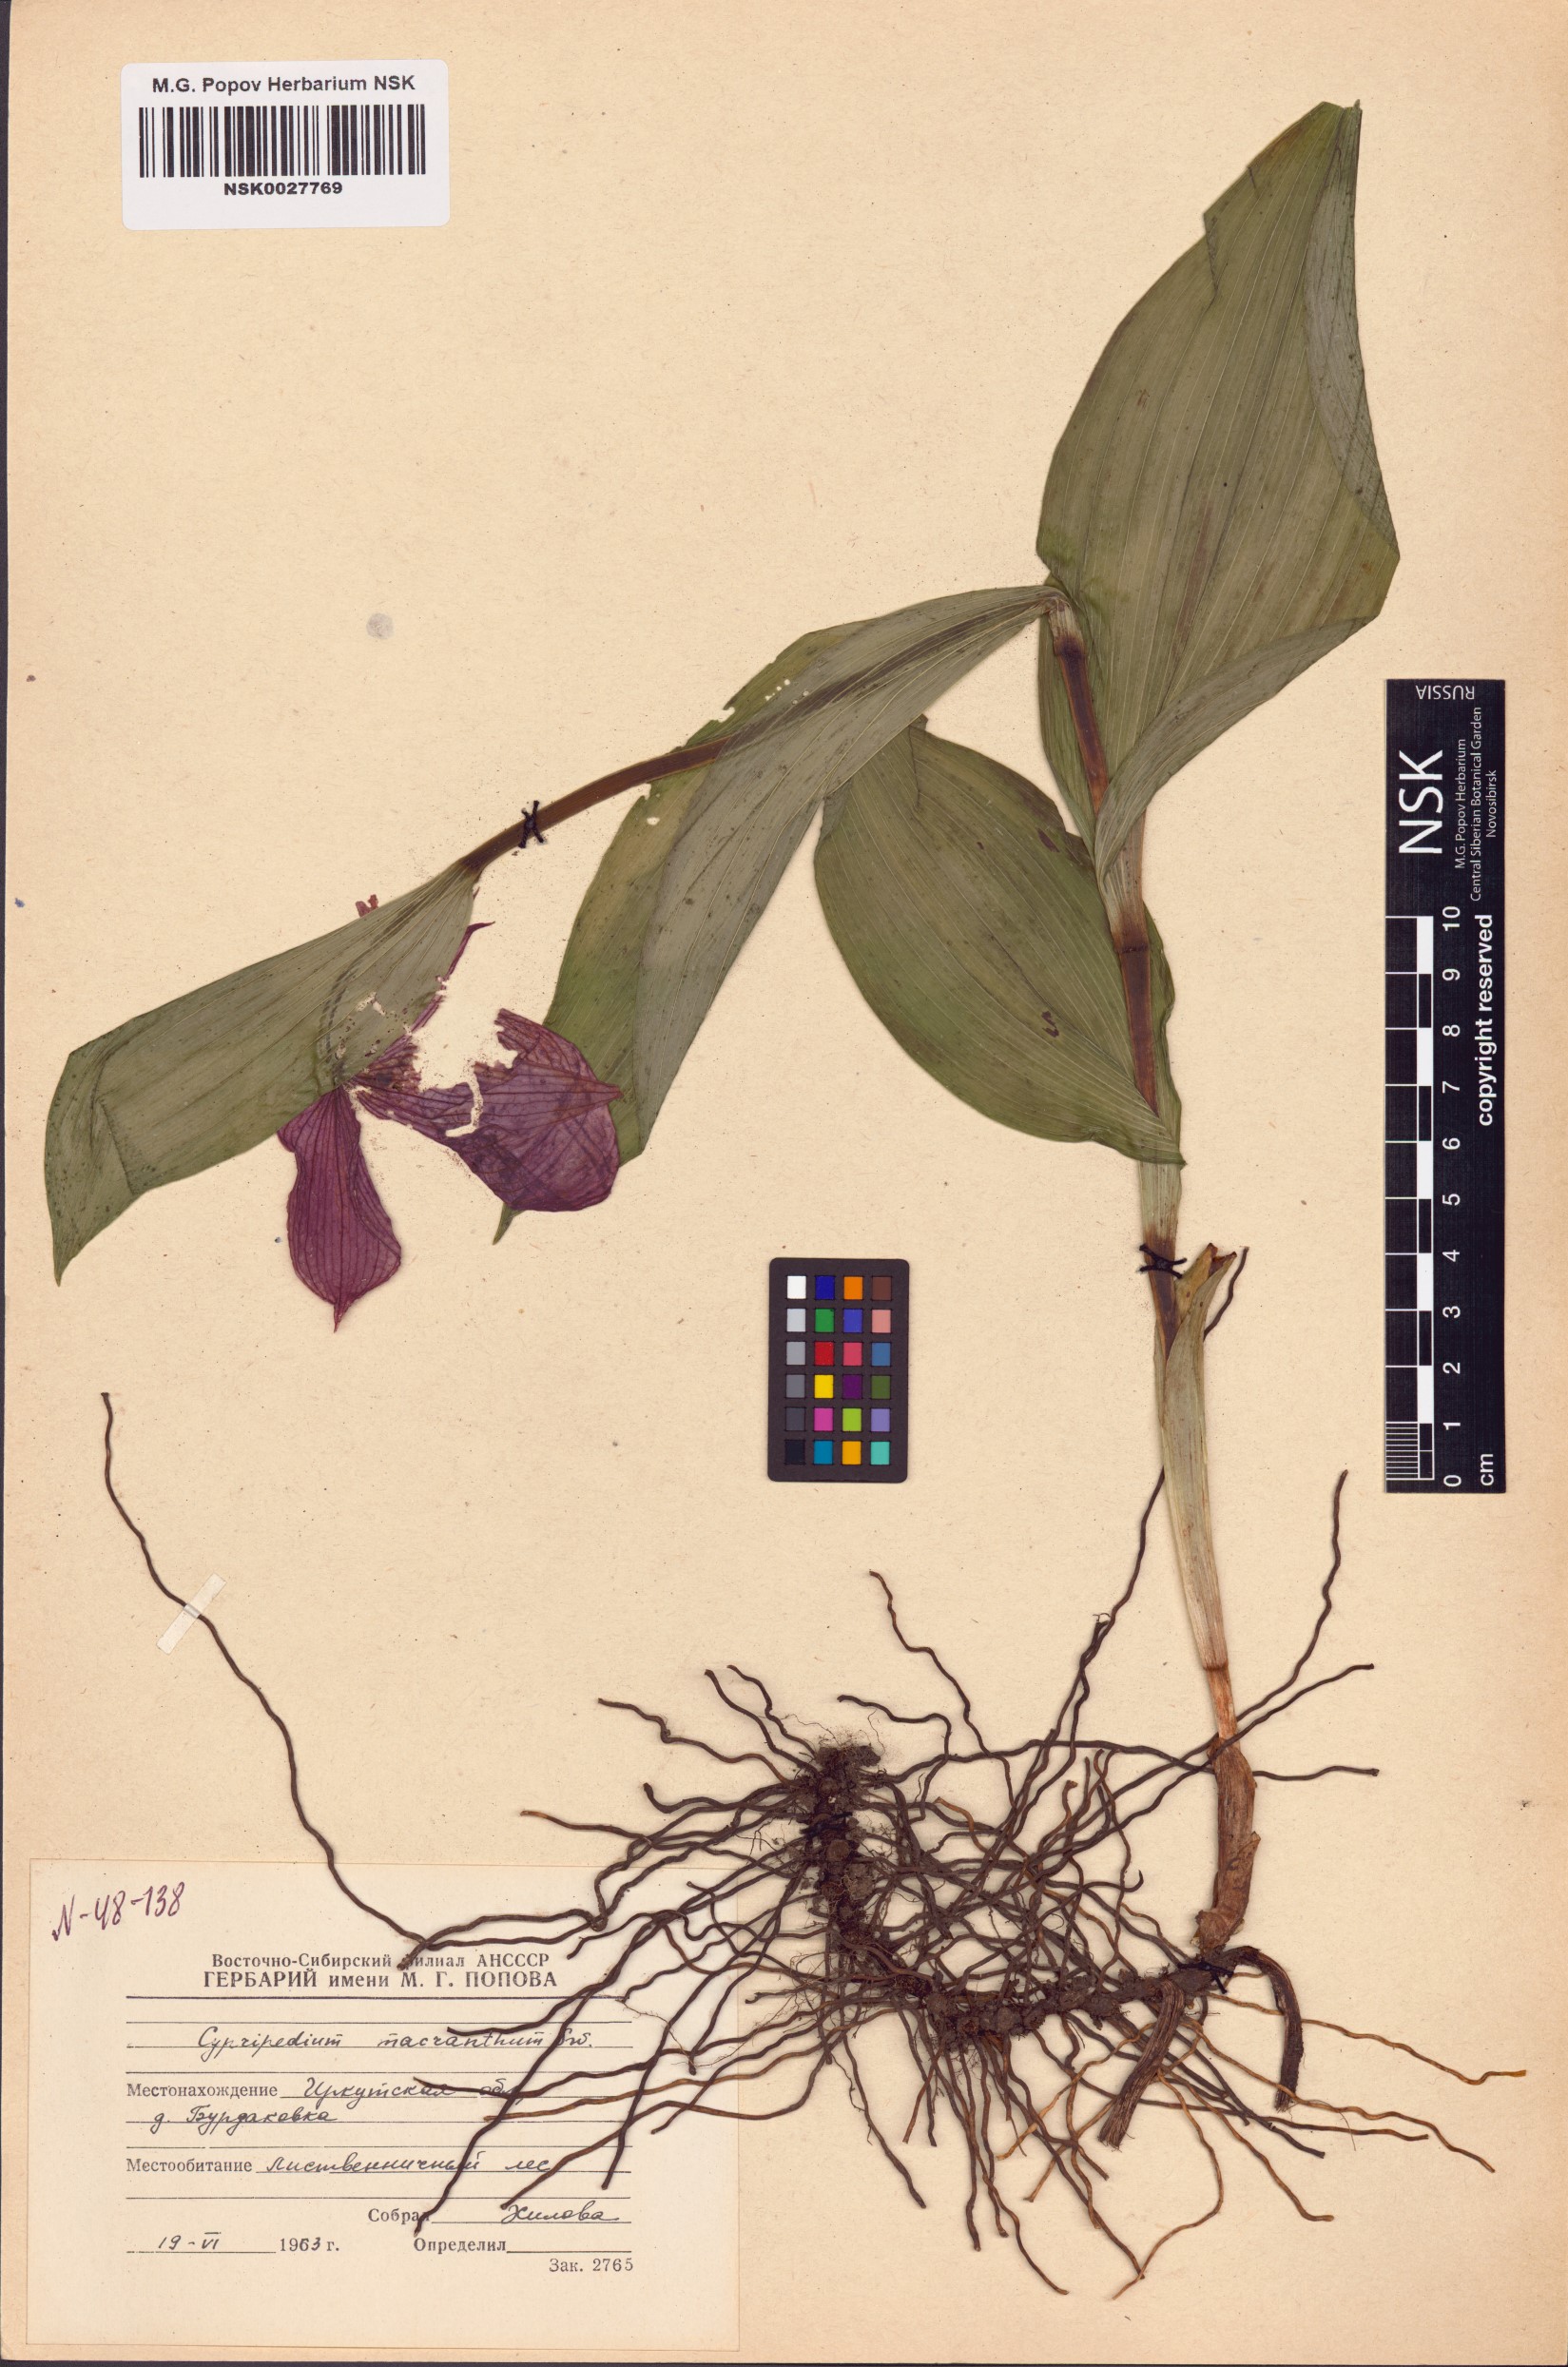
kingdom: Plantae
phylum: Tracheophyta
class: Liliopsida
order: Asparagales
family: Orchidaceae
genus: Cypripedium
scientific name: Cypripedium macranthos
